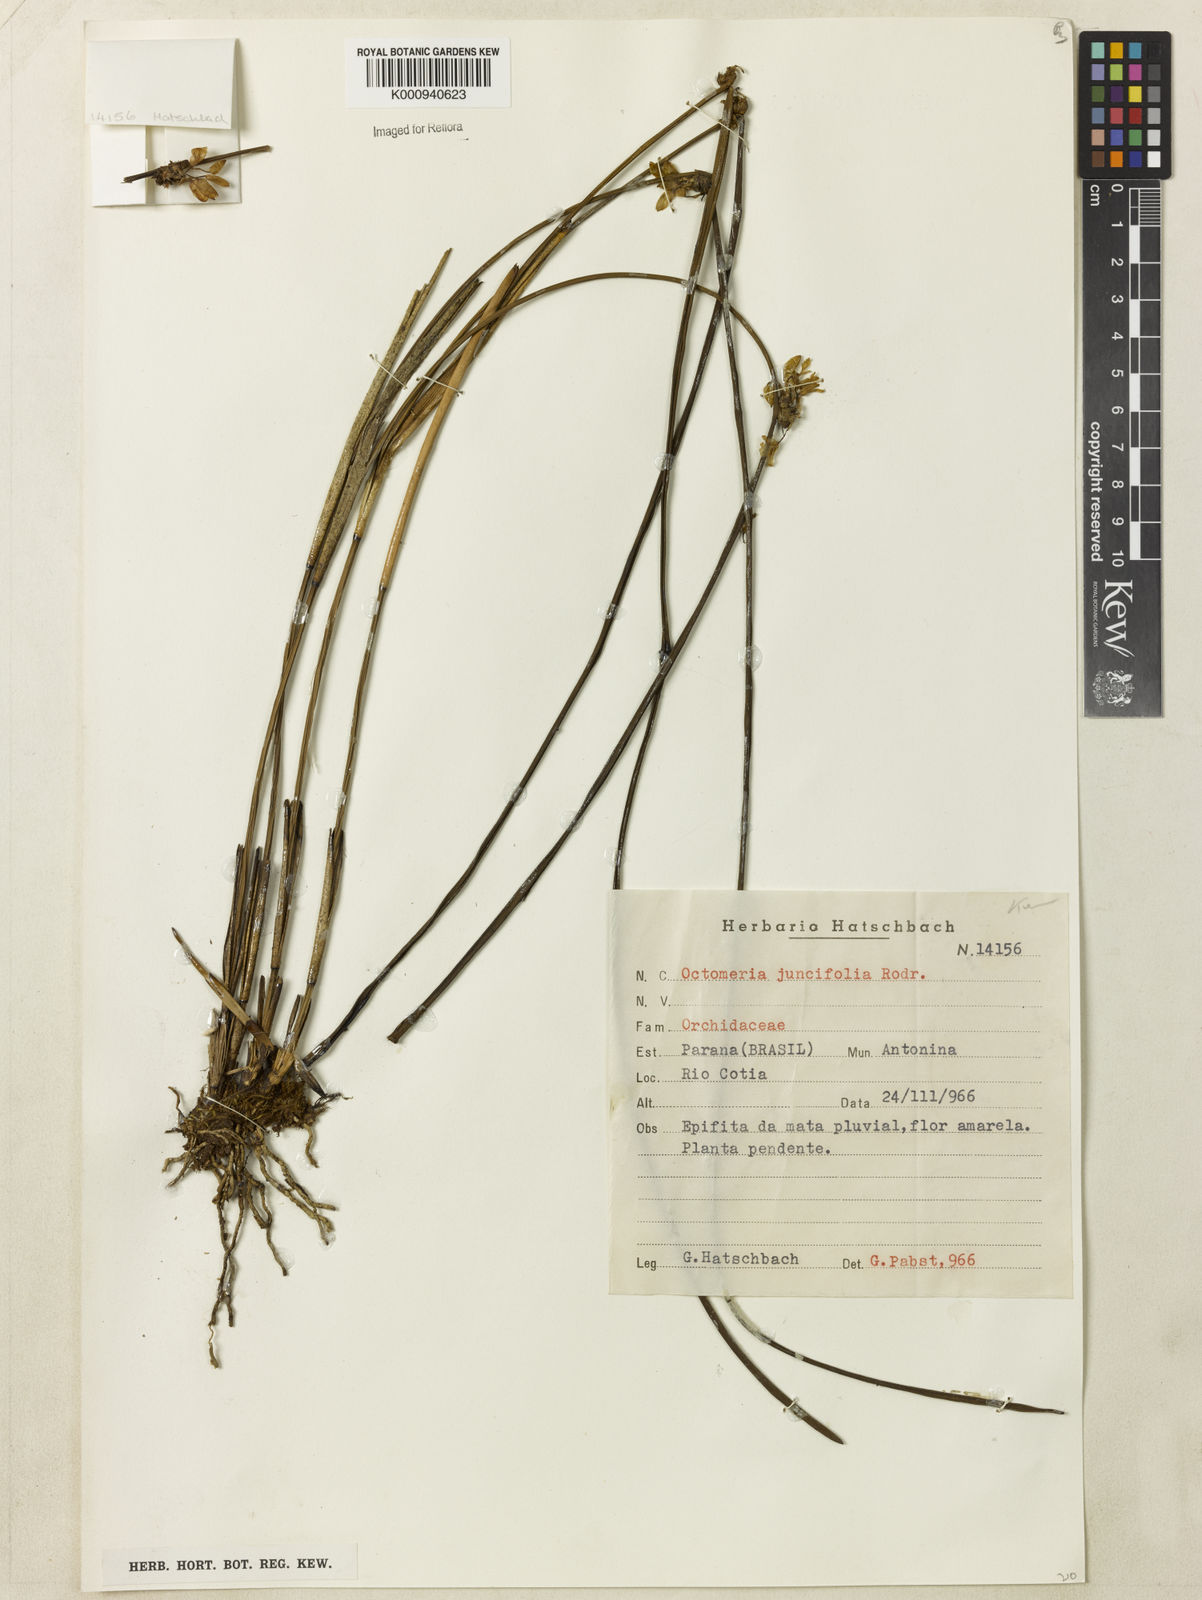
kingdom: Plantae
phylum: Tracheophyta
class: Liliopsida
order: Asparagales
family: Orchidaceae
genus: Octomeria
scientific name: Octomeria juncifolia
